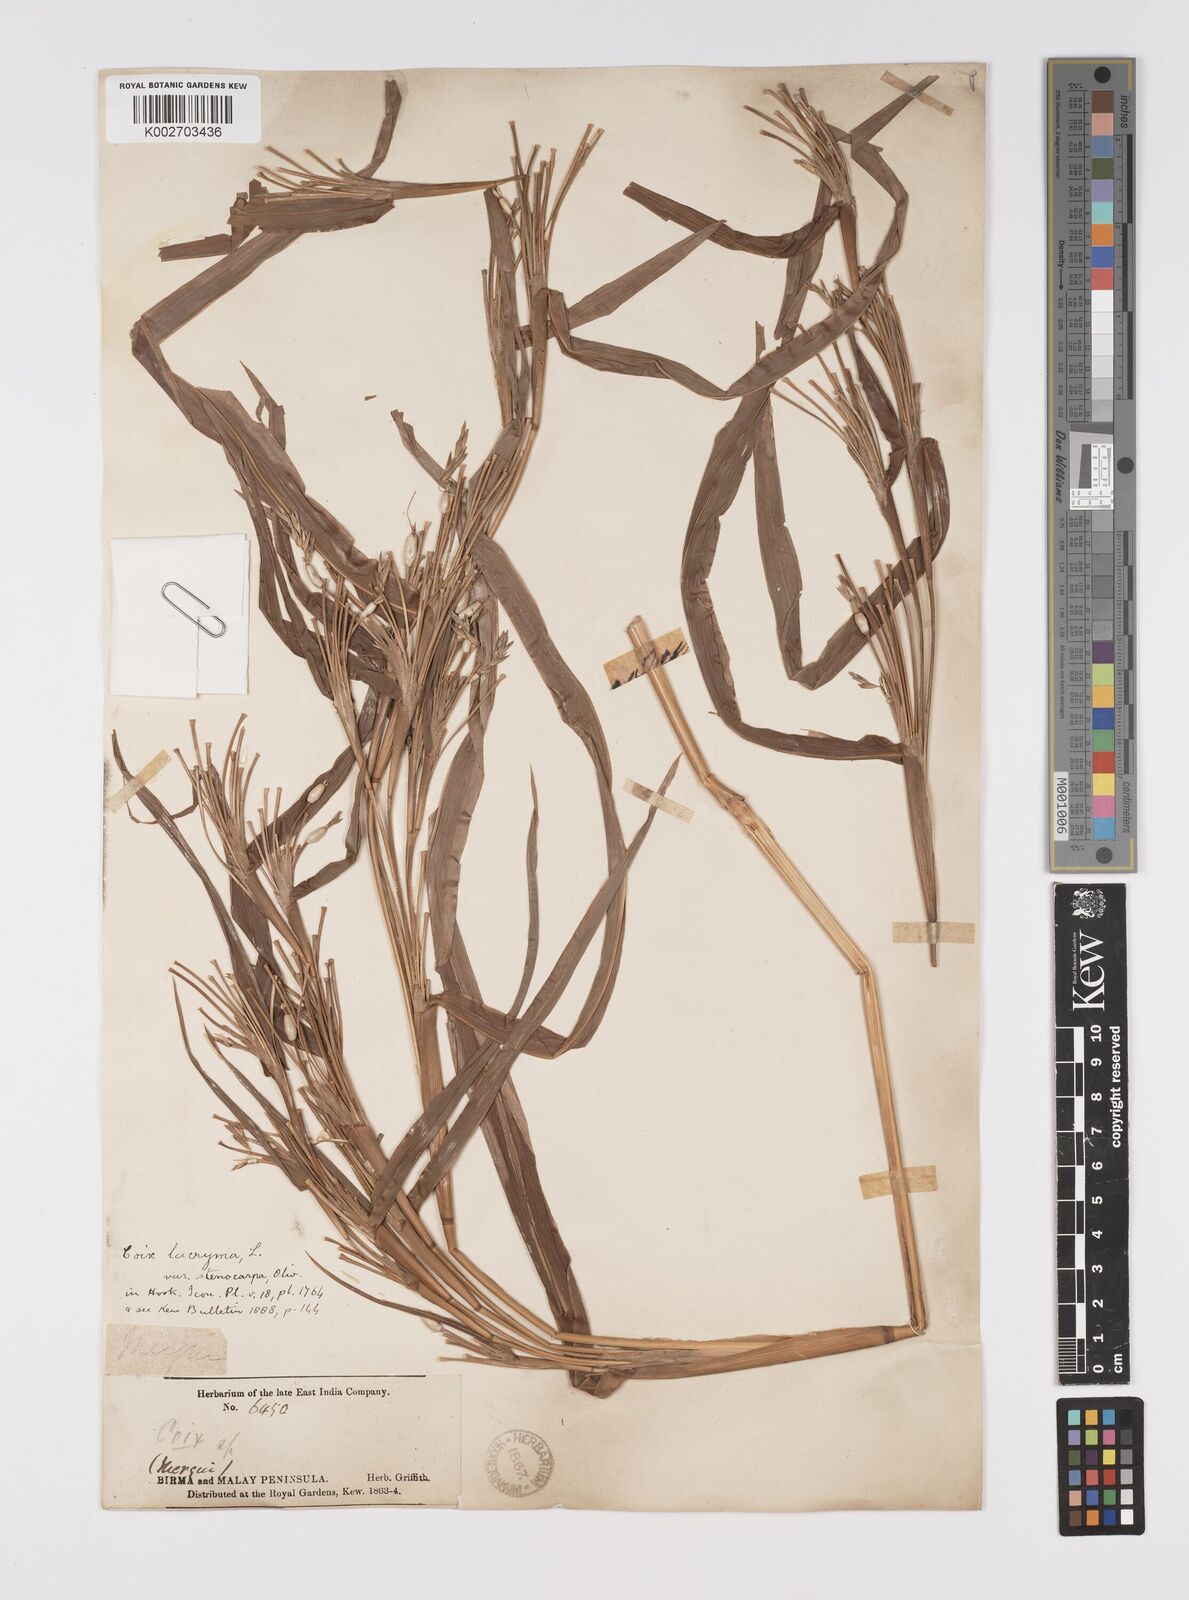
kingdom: Plantae
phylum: Tracheophyta
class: Liliopsida
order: Poales
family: Poaceae
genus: Coix
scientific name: Coix lacryma-jobi
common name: Job's tears
